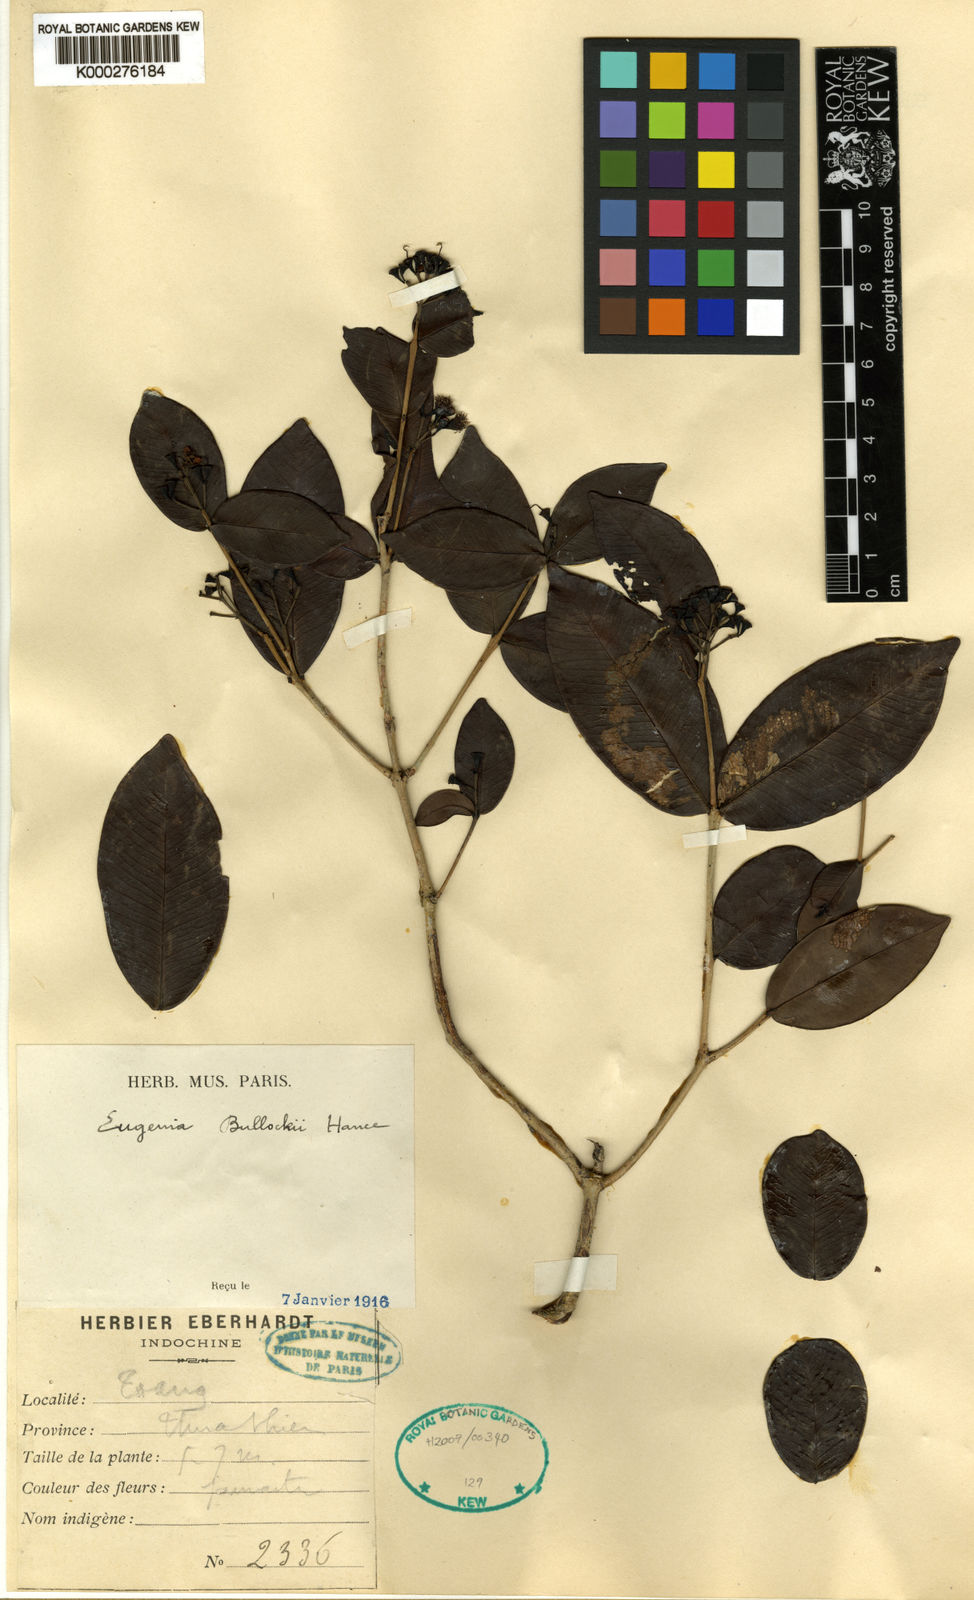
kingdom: Plantae
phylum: Tracheophyta
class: Magnoliopsida
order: Myrtales
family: Myrtaceae
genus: Syzygium
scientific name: Syzygium bullockii
